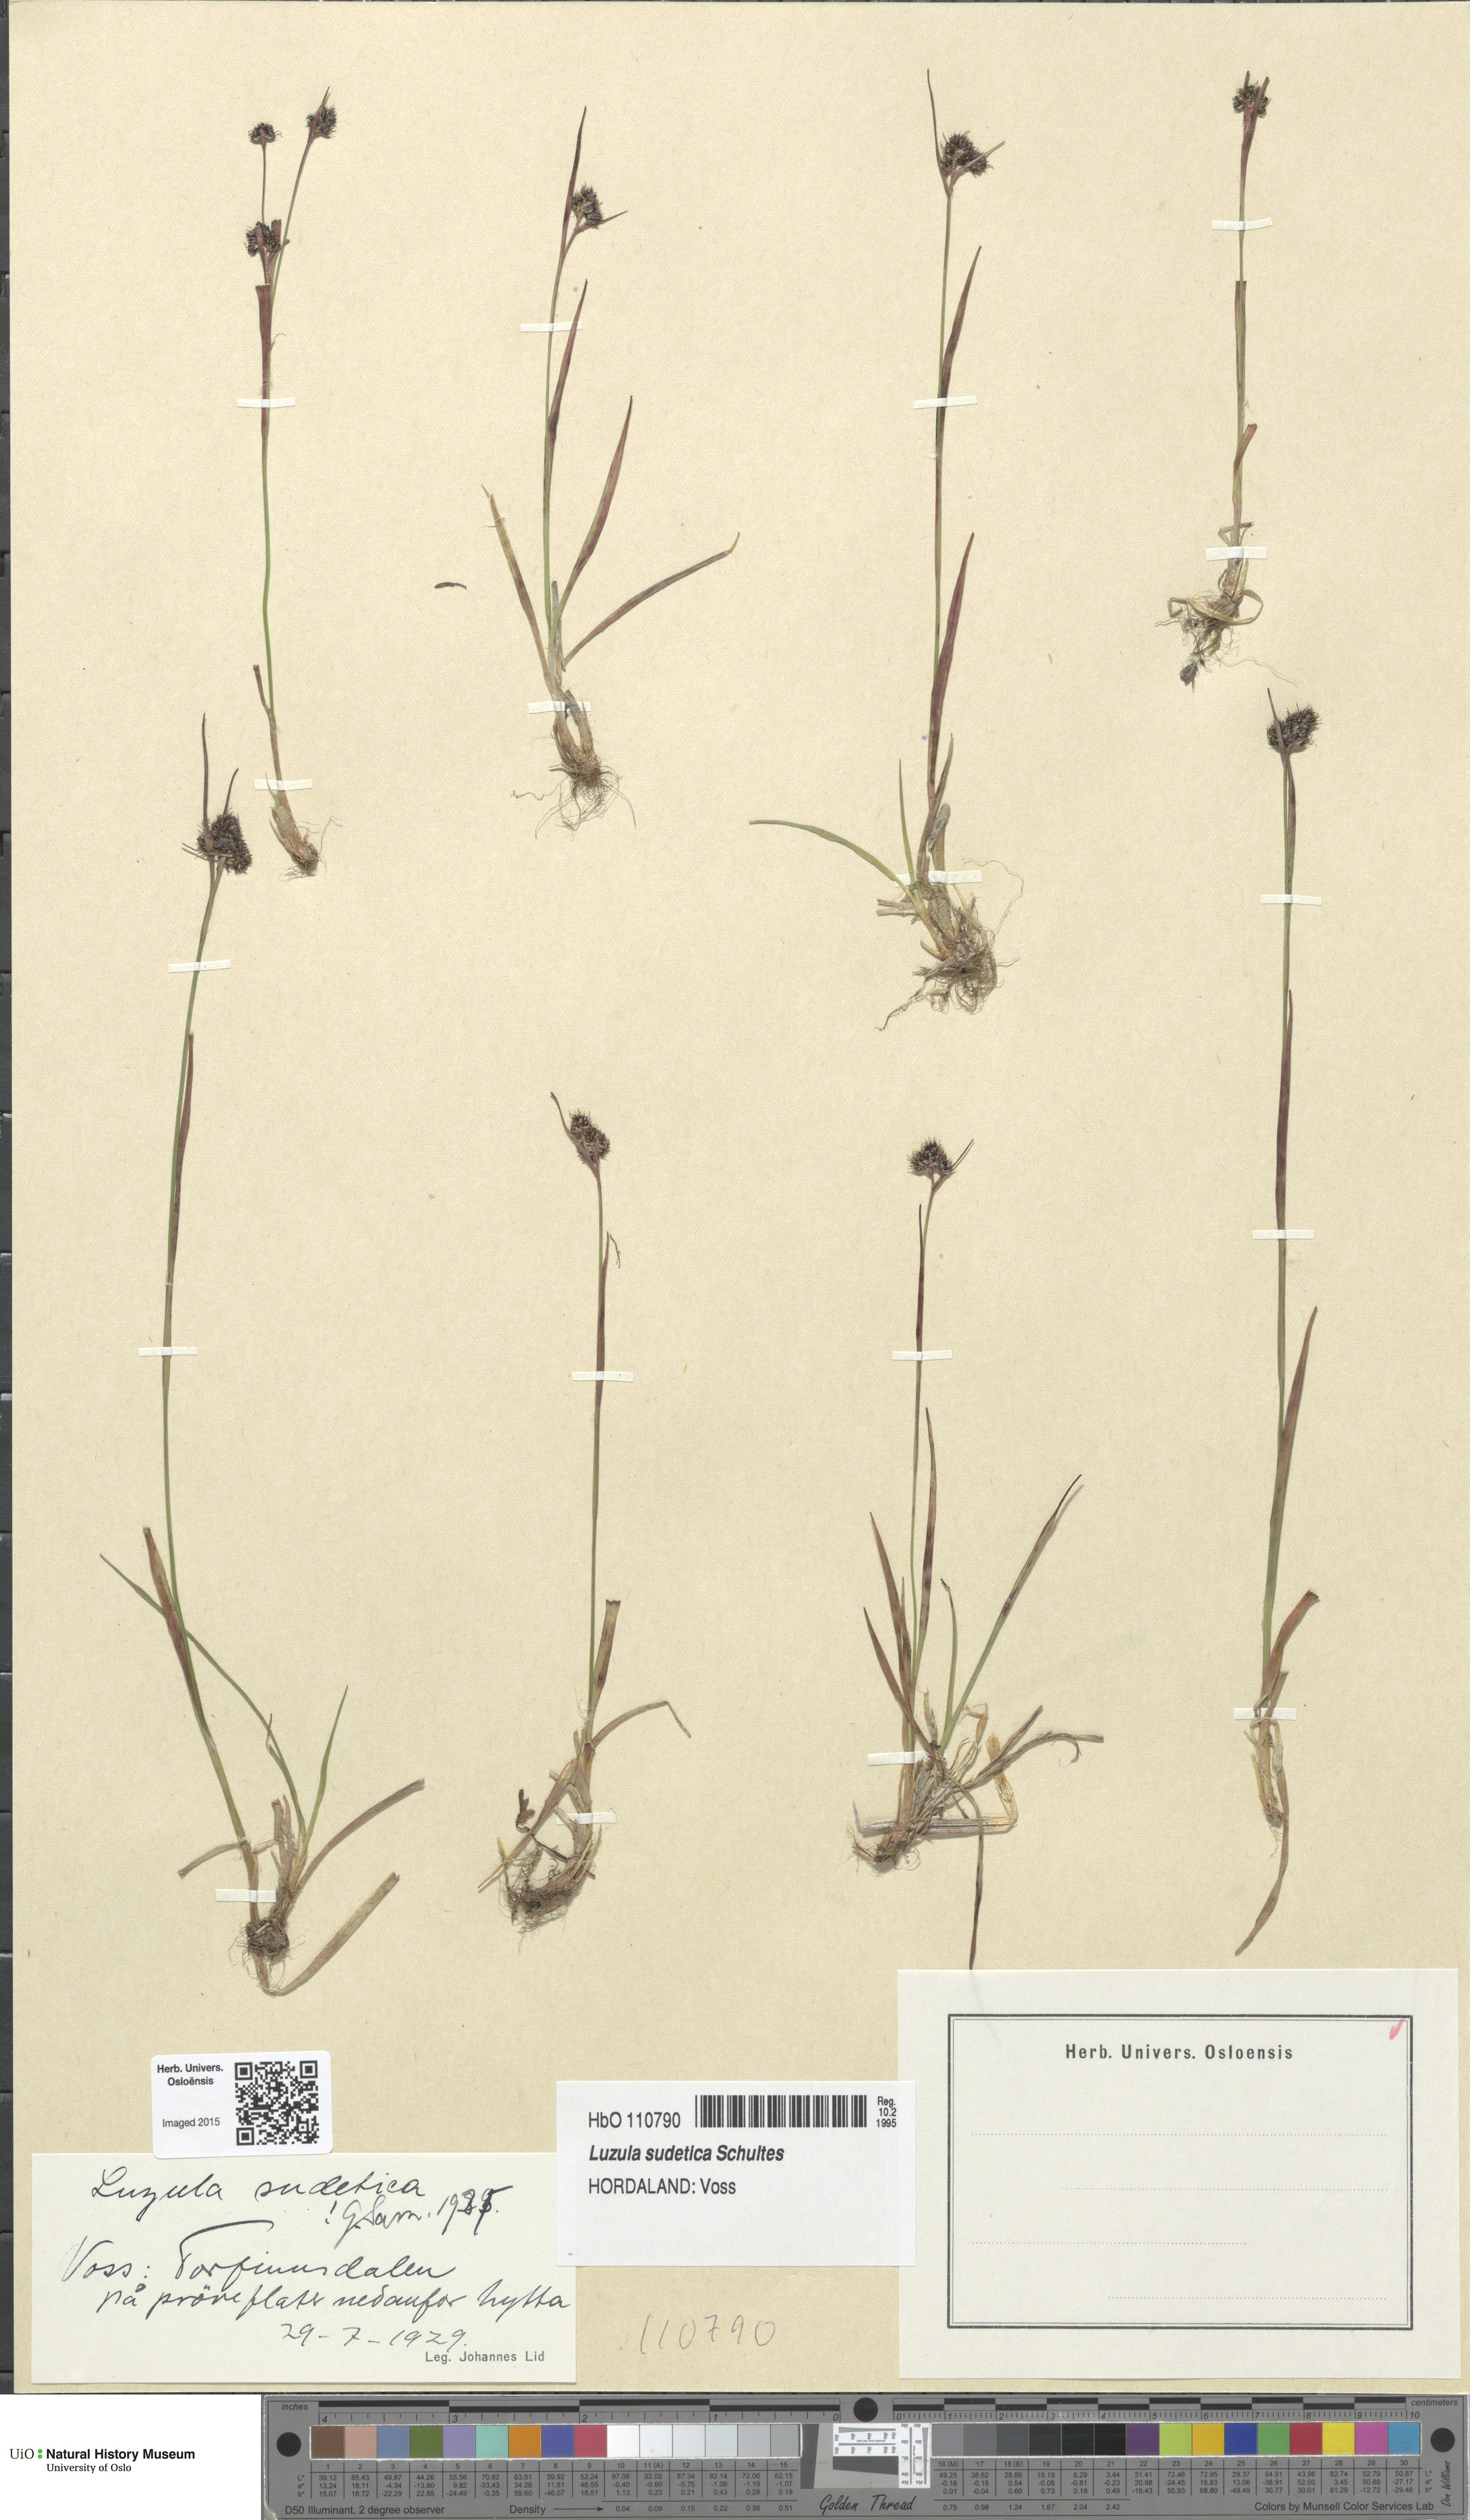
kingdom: Plantae
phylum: Tracheophyta
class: Liliopsida
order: Poales
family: Juncaceae
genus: Luzula
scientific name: Luzula sudetica
